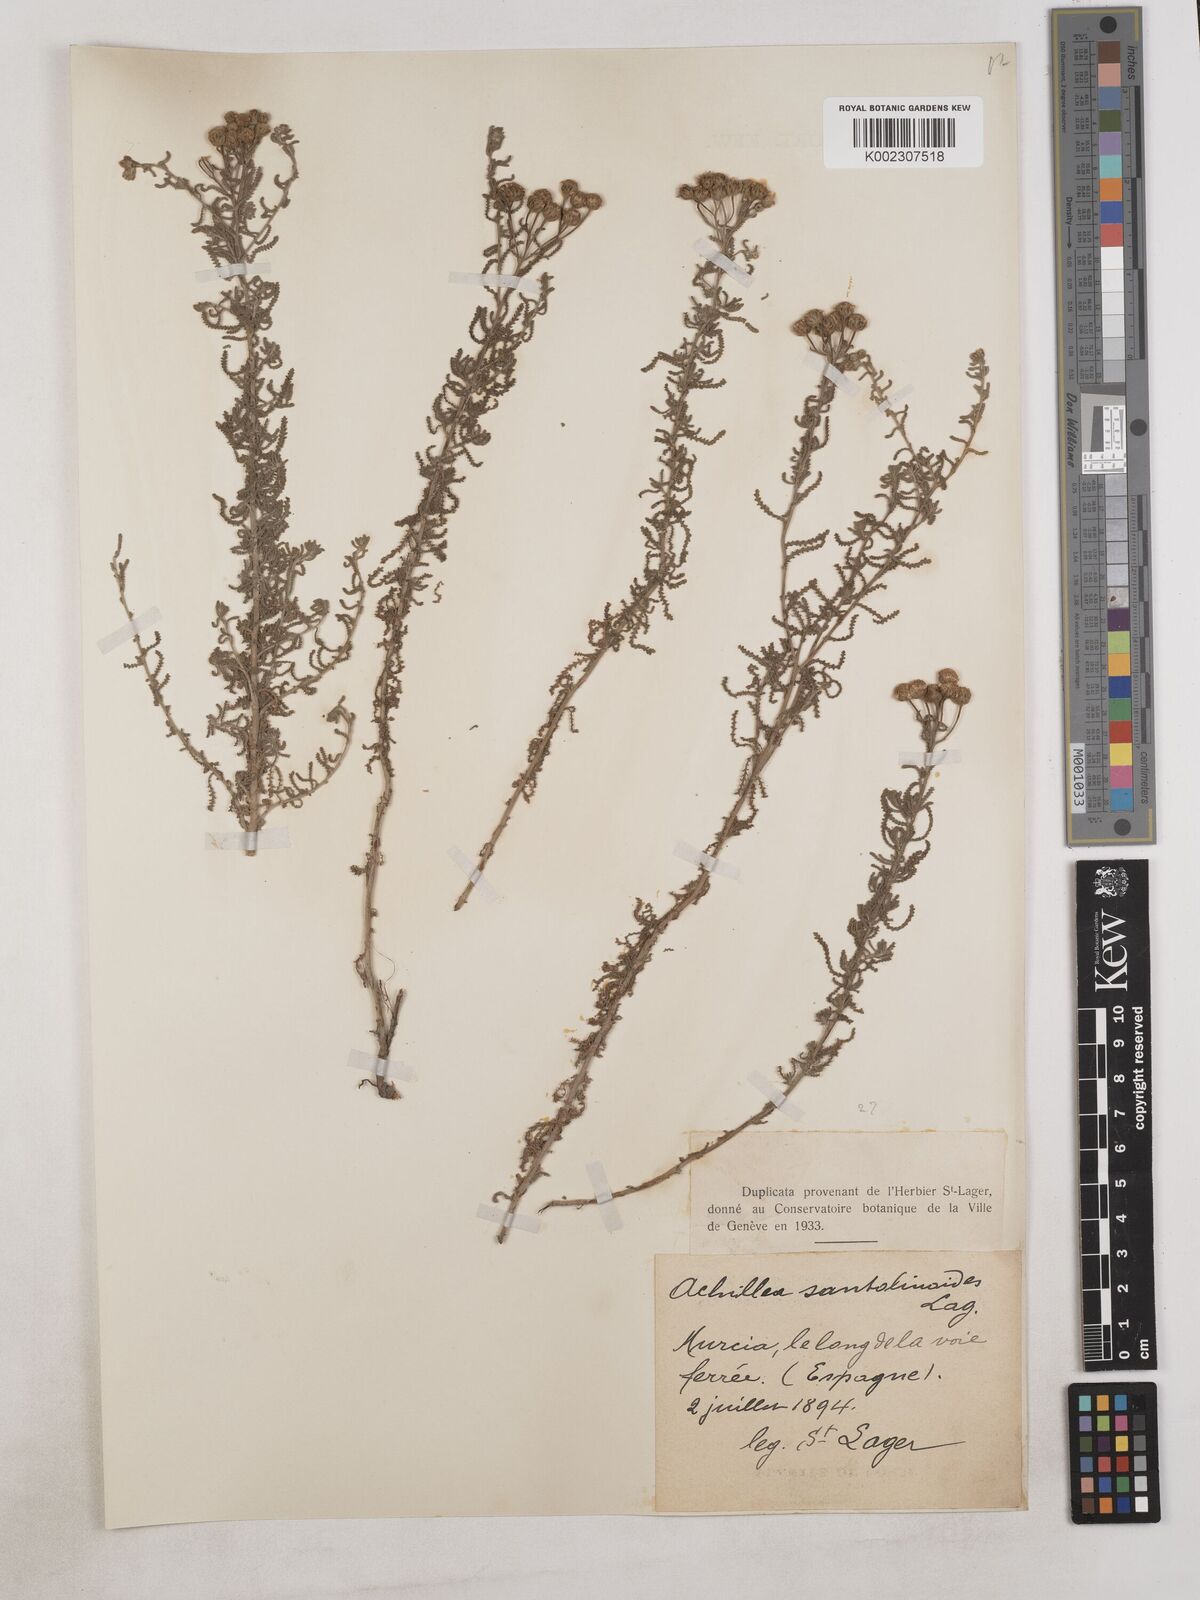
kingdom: Plantae
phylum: Tracheophyta
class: Magnoliopsida
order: Asterales
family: Asteraceae
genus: Achillea
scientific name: Achillea santolinoides
